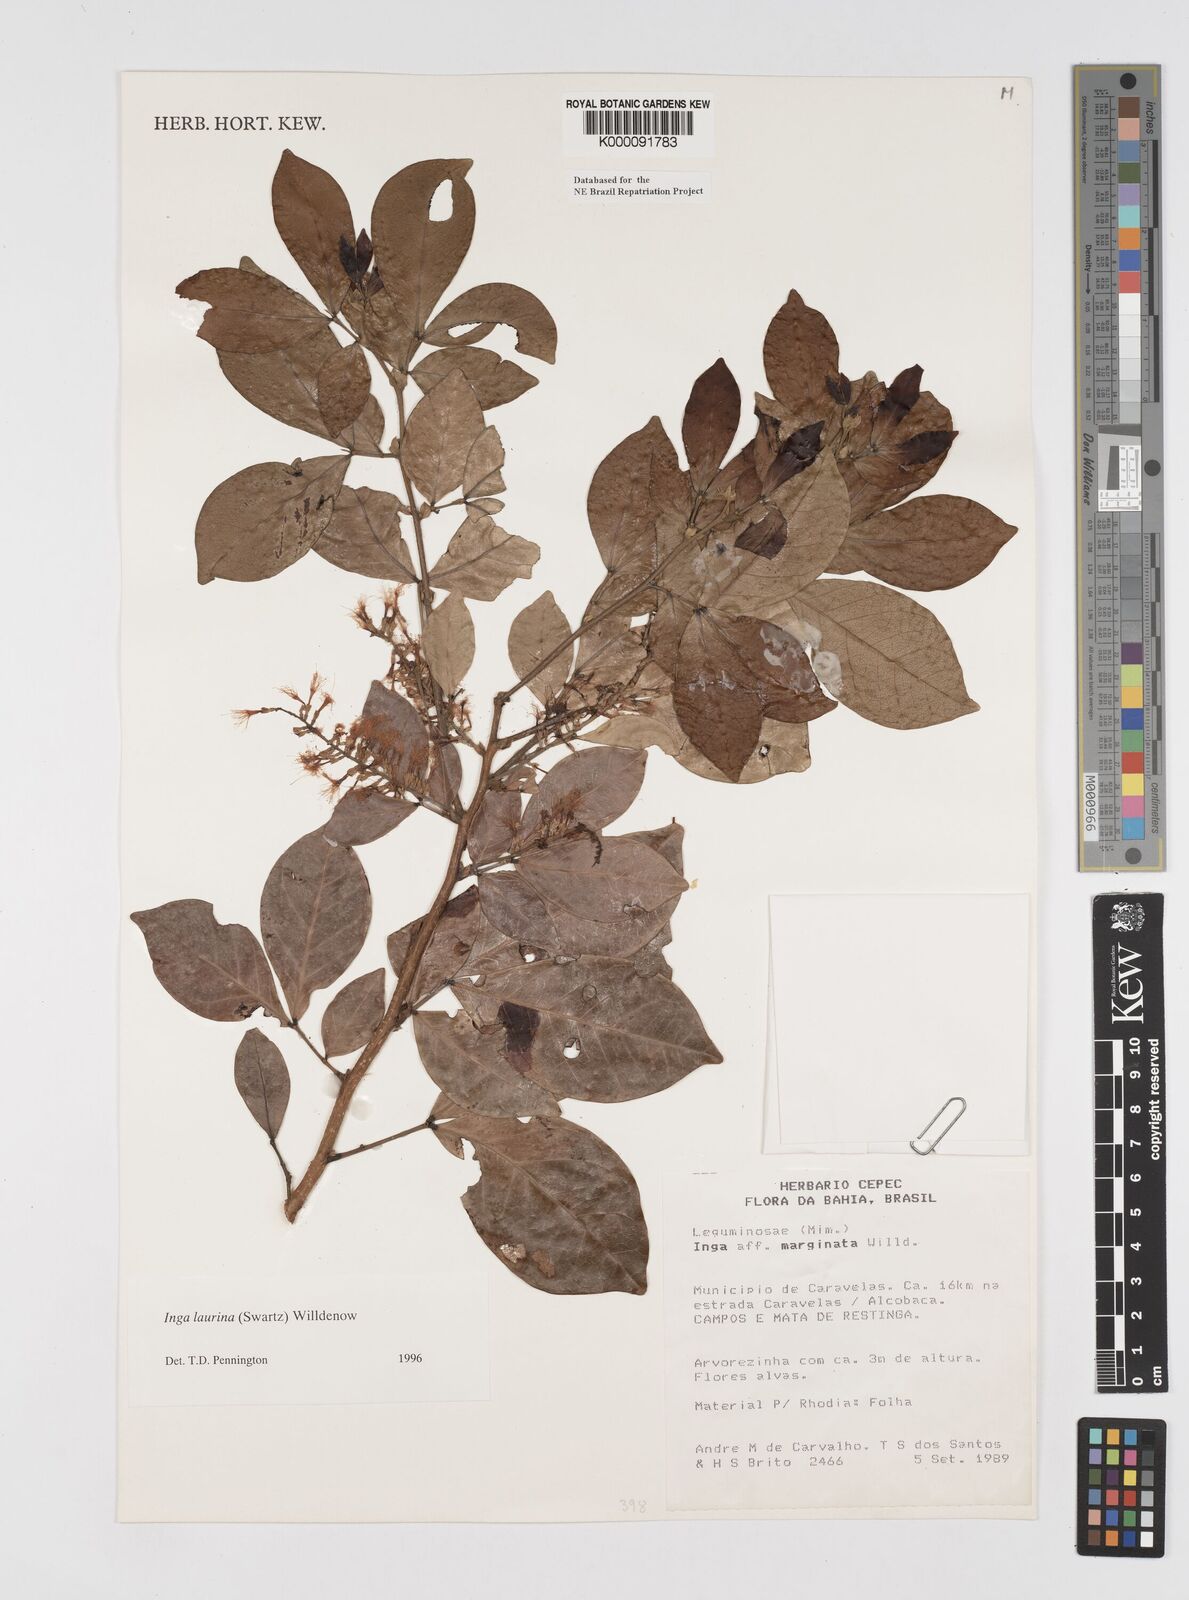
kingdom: Plantae
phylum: Tracheophyta
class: Magnoliopsida
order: Fabales
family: Fabaceae
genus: Inga
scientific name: Inga laurina
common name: Red wood
